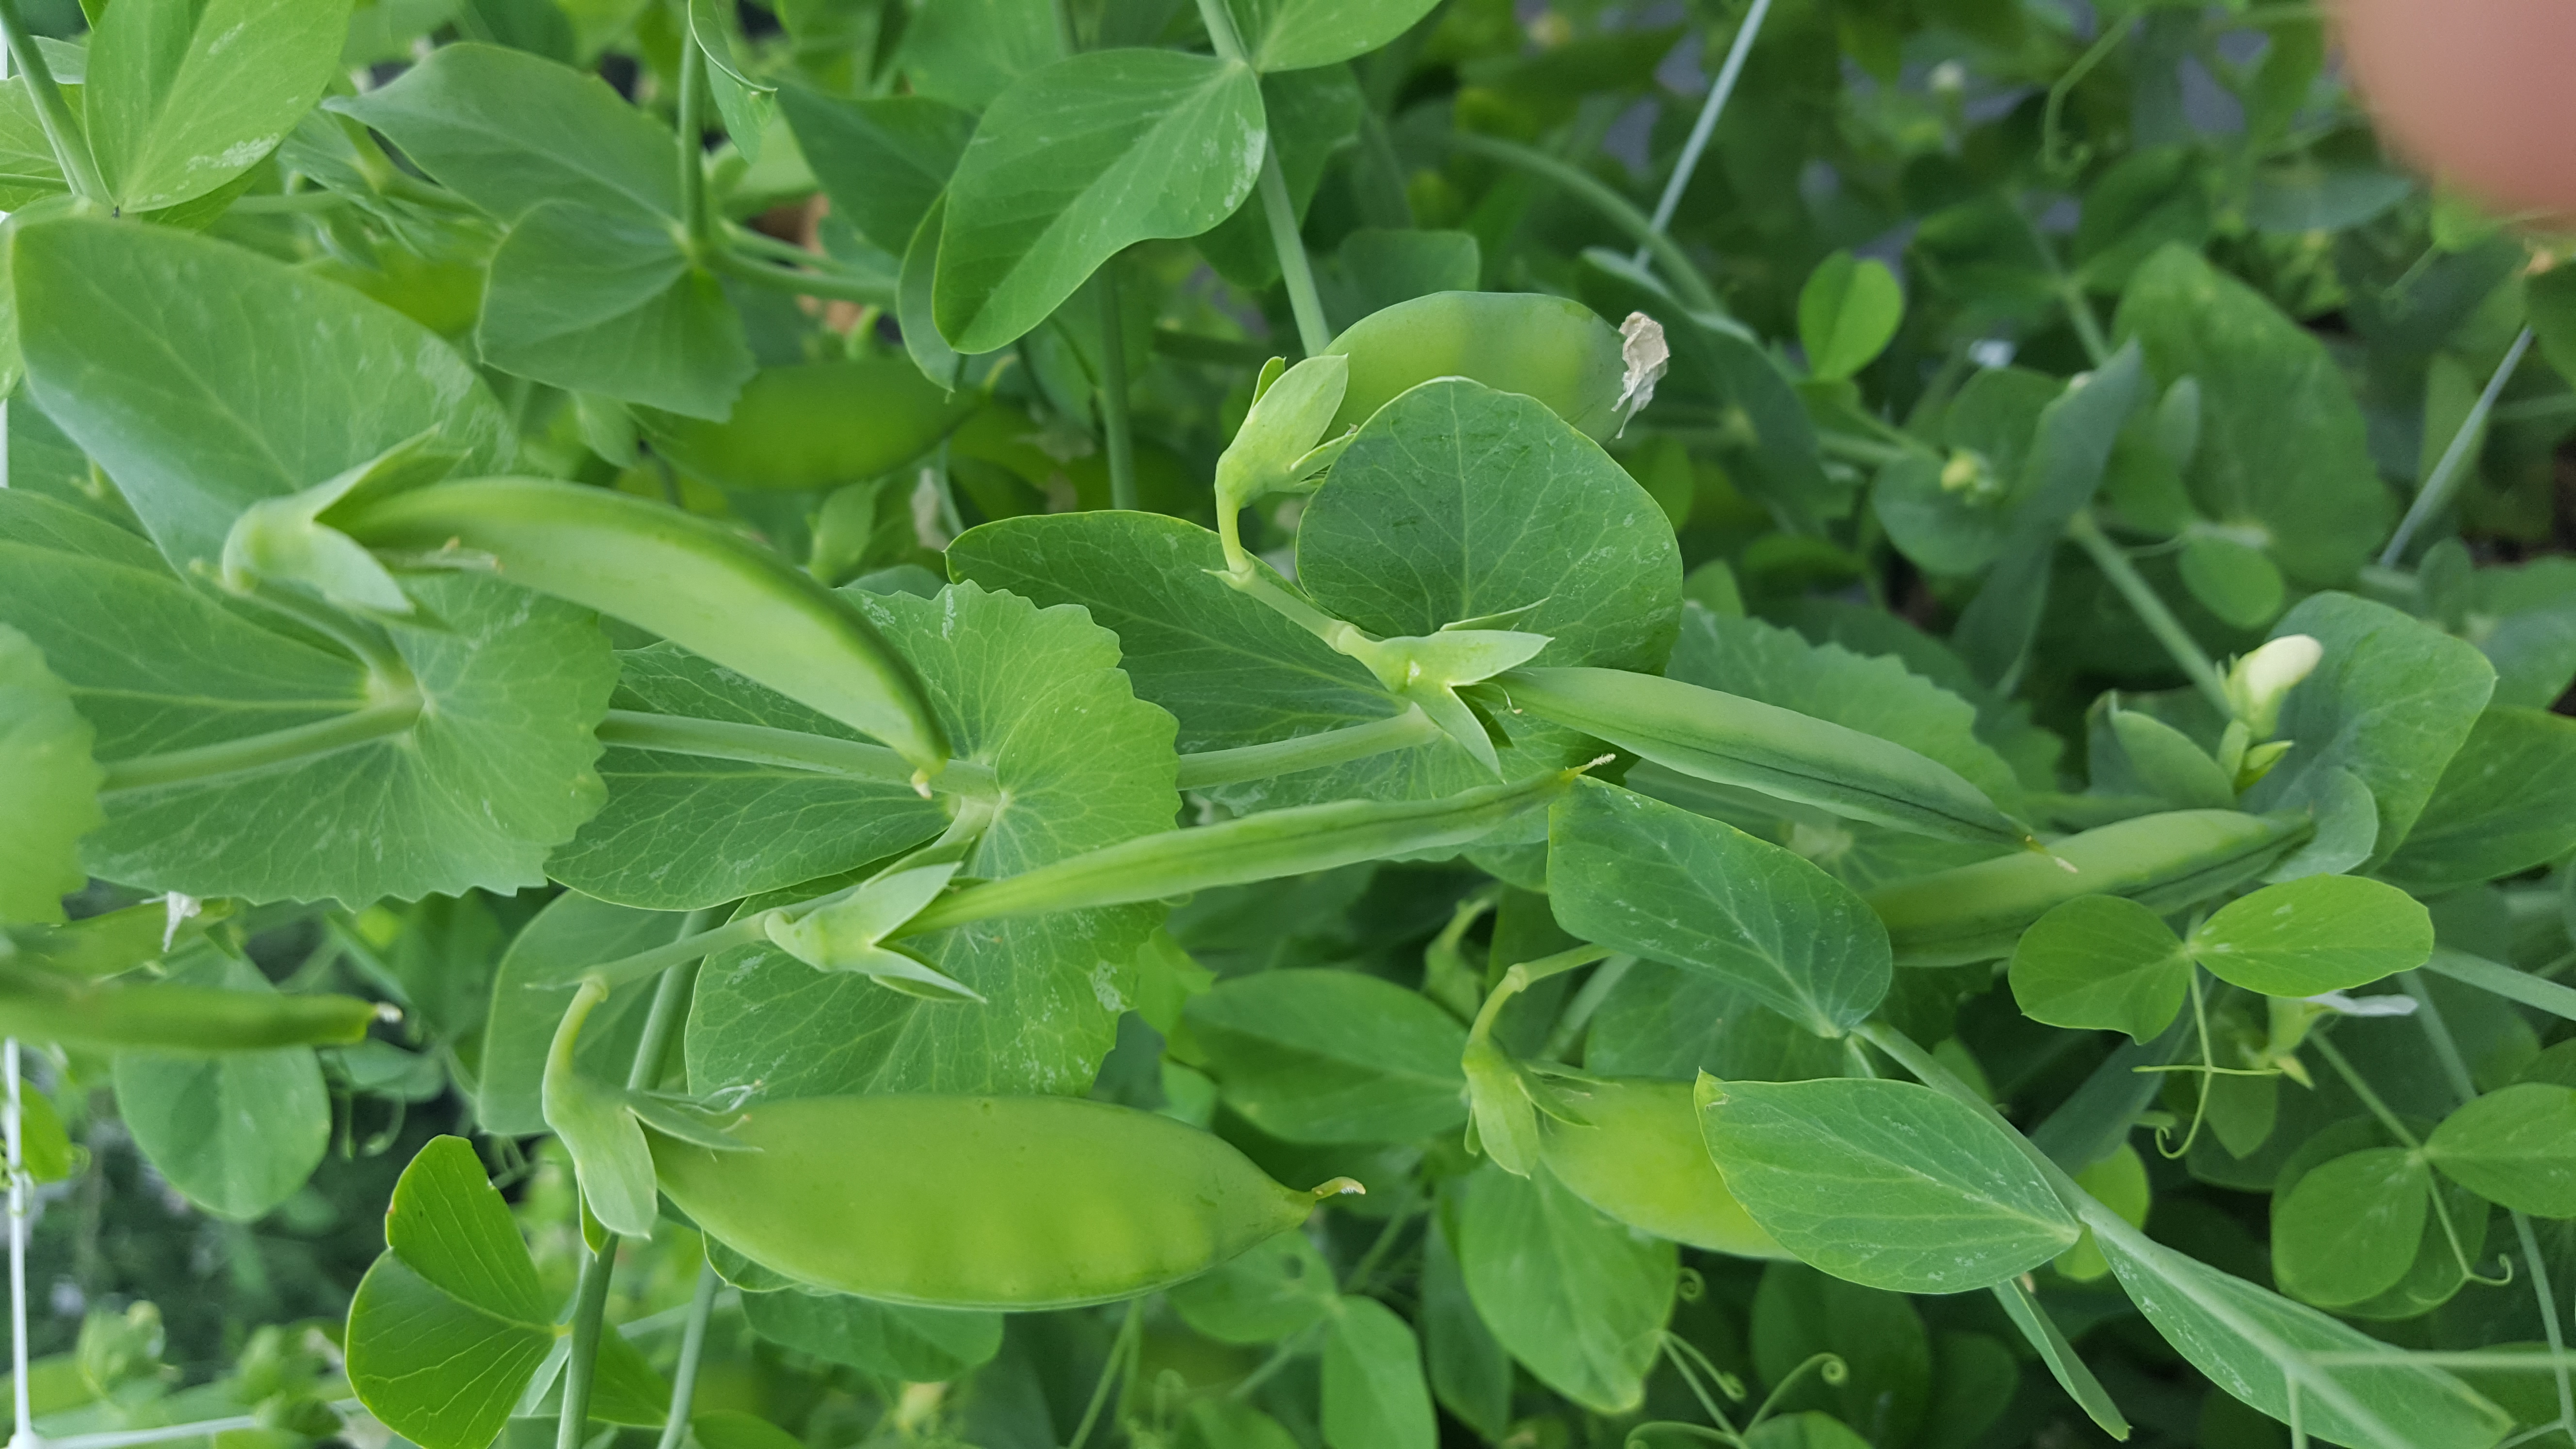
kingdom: Plantae
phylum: Tracheophyta
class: Magnoliopsida
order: Fabales
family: Fabaceae
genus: Lathyrus
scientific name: Lathyrus oleraceus
